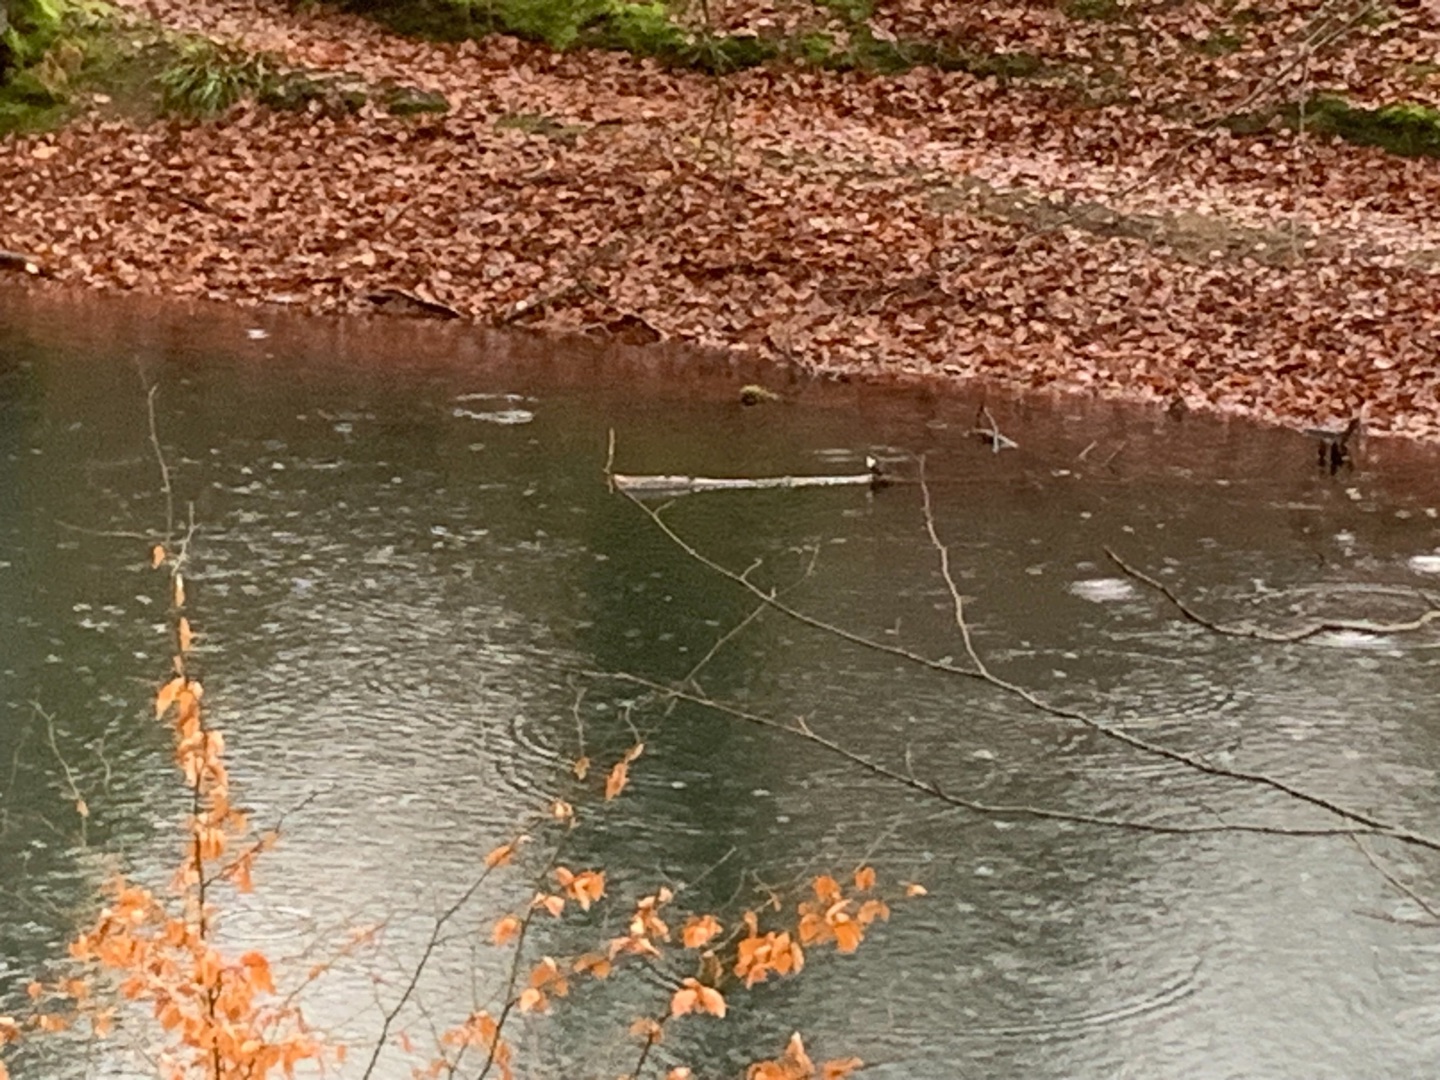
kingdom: Animalia
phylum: Chordata
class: Aves
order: Passeriformes
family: Cinclidae
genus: Cinclus
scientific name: Cinclus cinclus
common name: Vandstær
